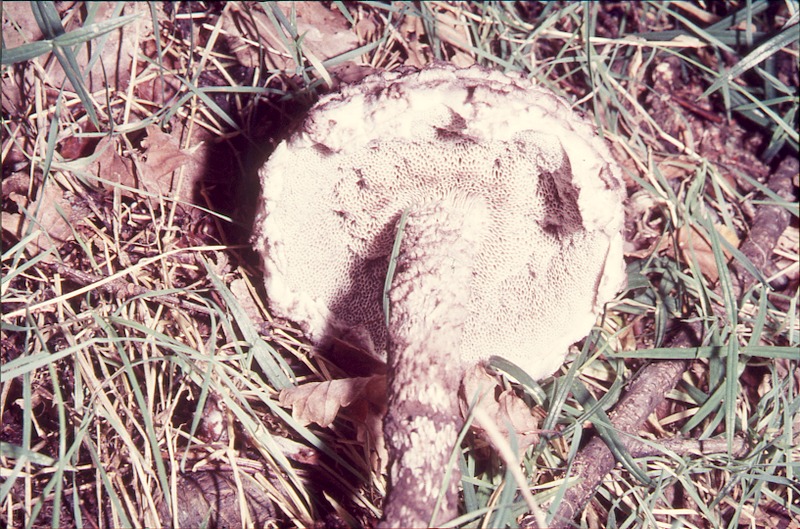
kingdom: Fungi
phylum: Basidiomycota
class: Agaricomycetes
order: Boletales
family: Boletaceae
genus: Strobilomyces
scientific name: Strobilomyces strobilaceus
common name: Old man of the woods
